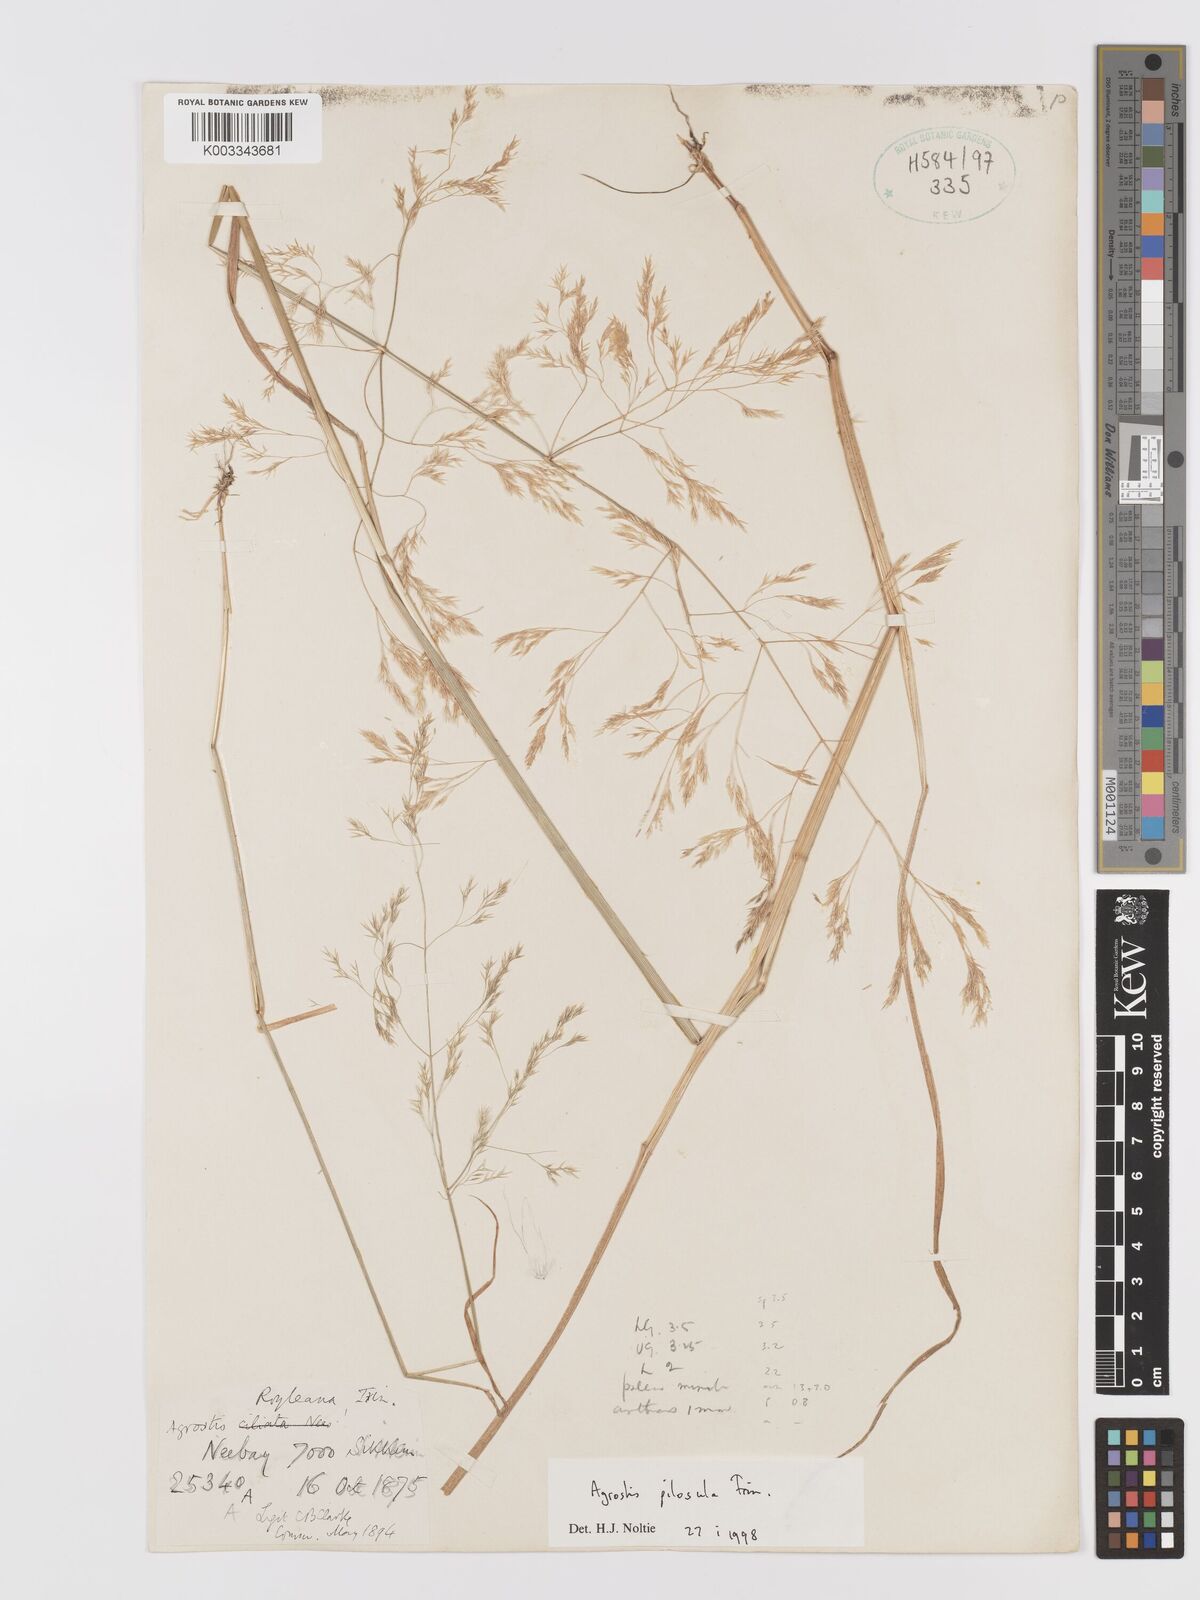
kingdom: Plantae
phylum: Tracheophyta
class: Liliopsida
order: Poales
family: Poaceae
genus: Agrostis
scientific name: Agrostis pilosula
